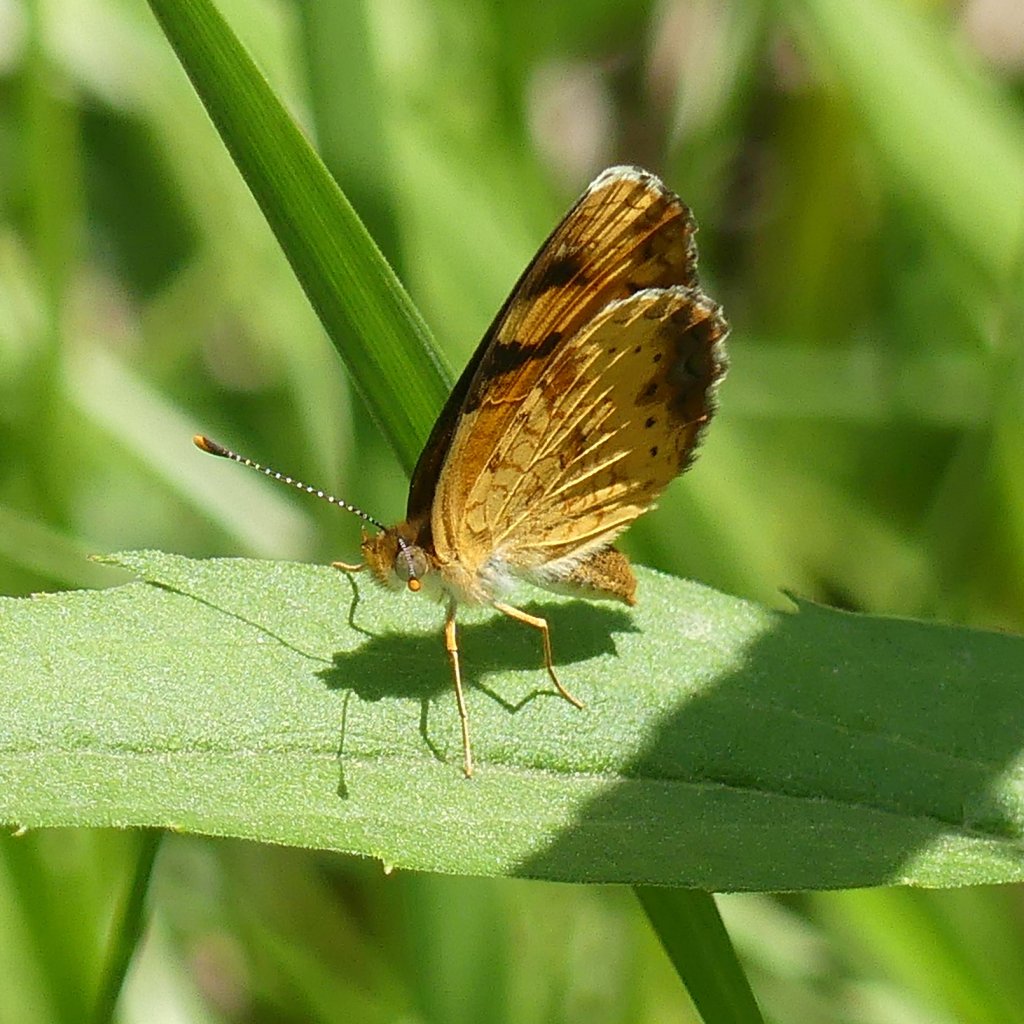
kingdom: Animalia
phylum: Arthropoda
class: Insecta
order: Lepidoptera
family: Nymphalidae
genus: Phyciodes
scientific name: Phyciodes tharos
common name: Northern Crescent
